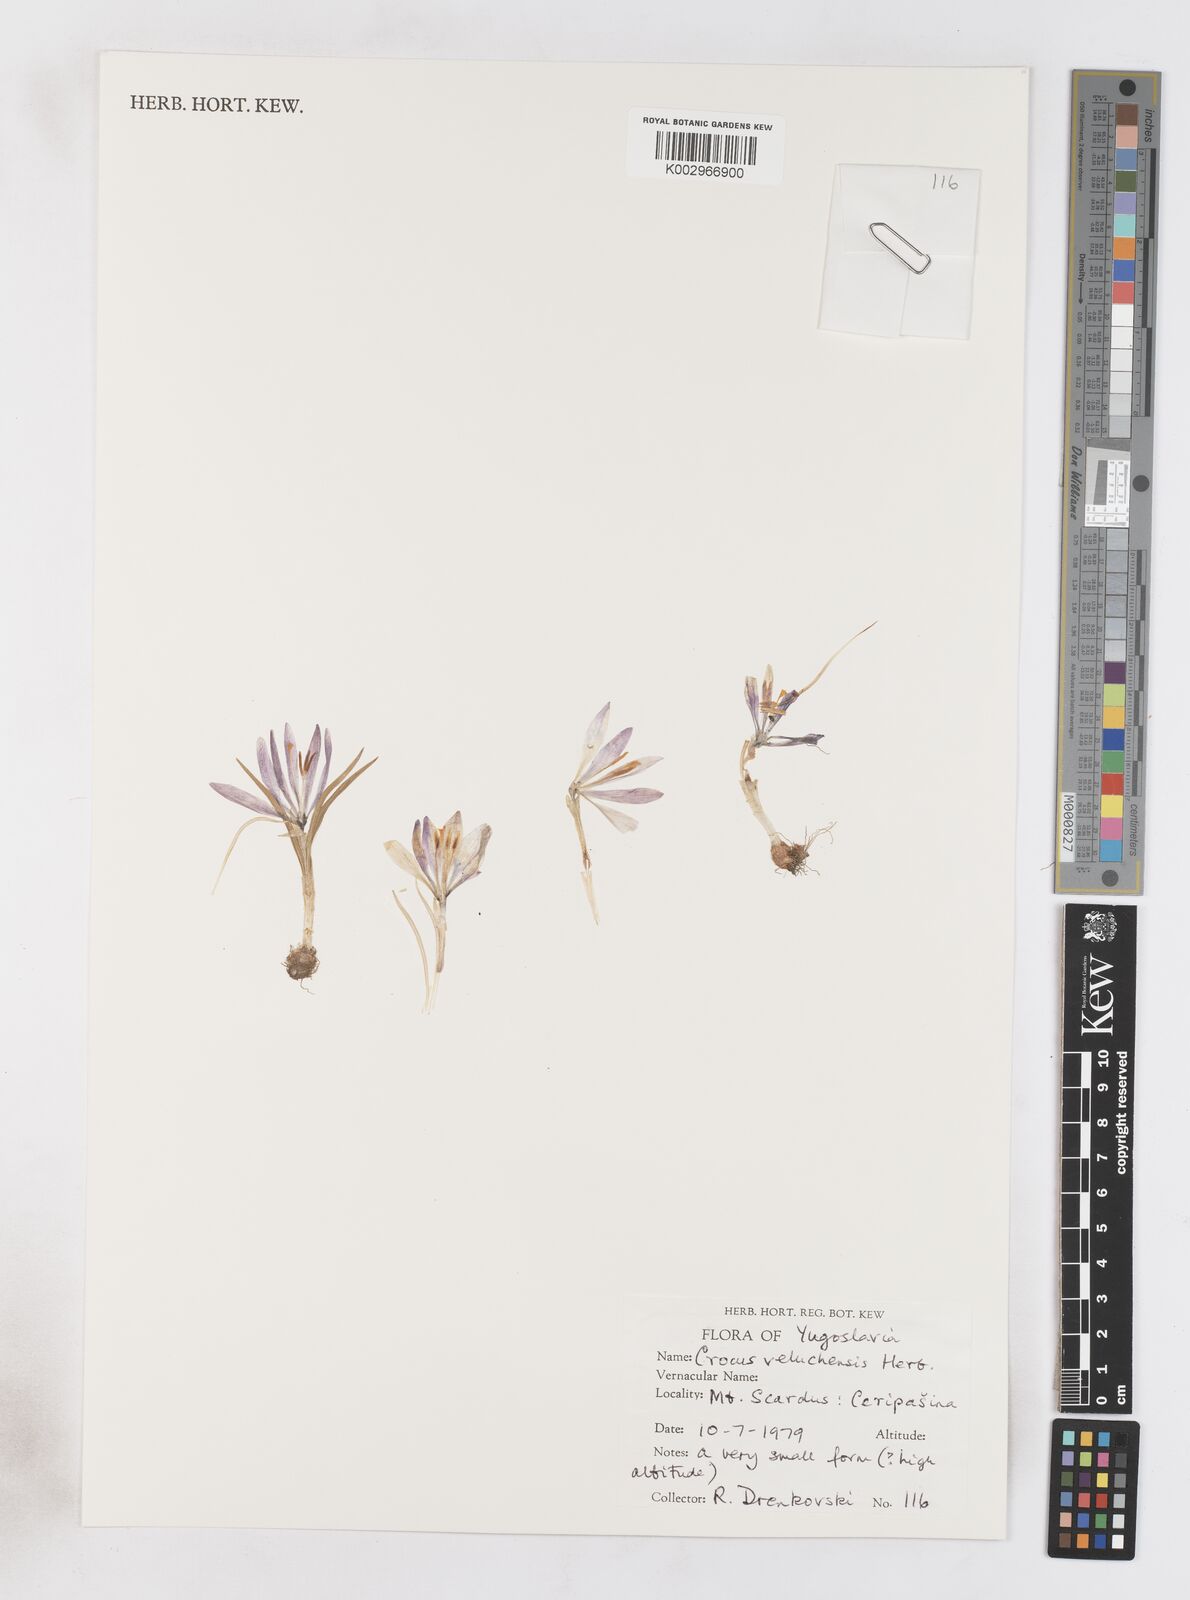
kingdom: Plantae
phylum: Tracheophyta
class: Liliopsida
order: Asparagales
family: Iridaceae
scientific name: Iridaceae
